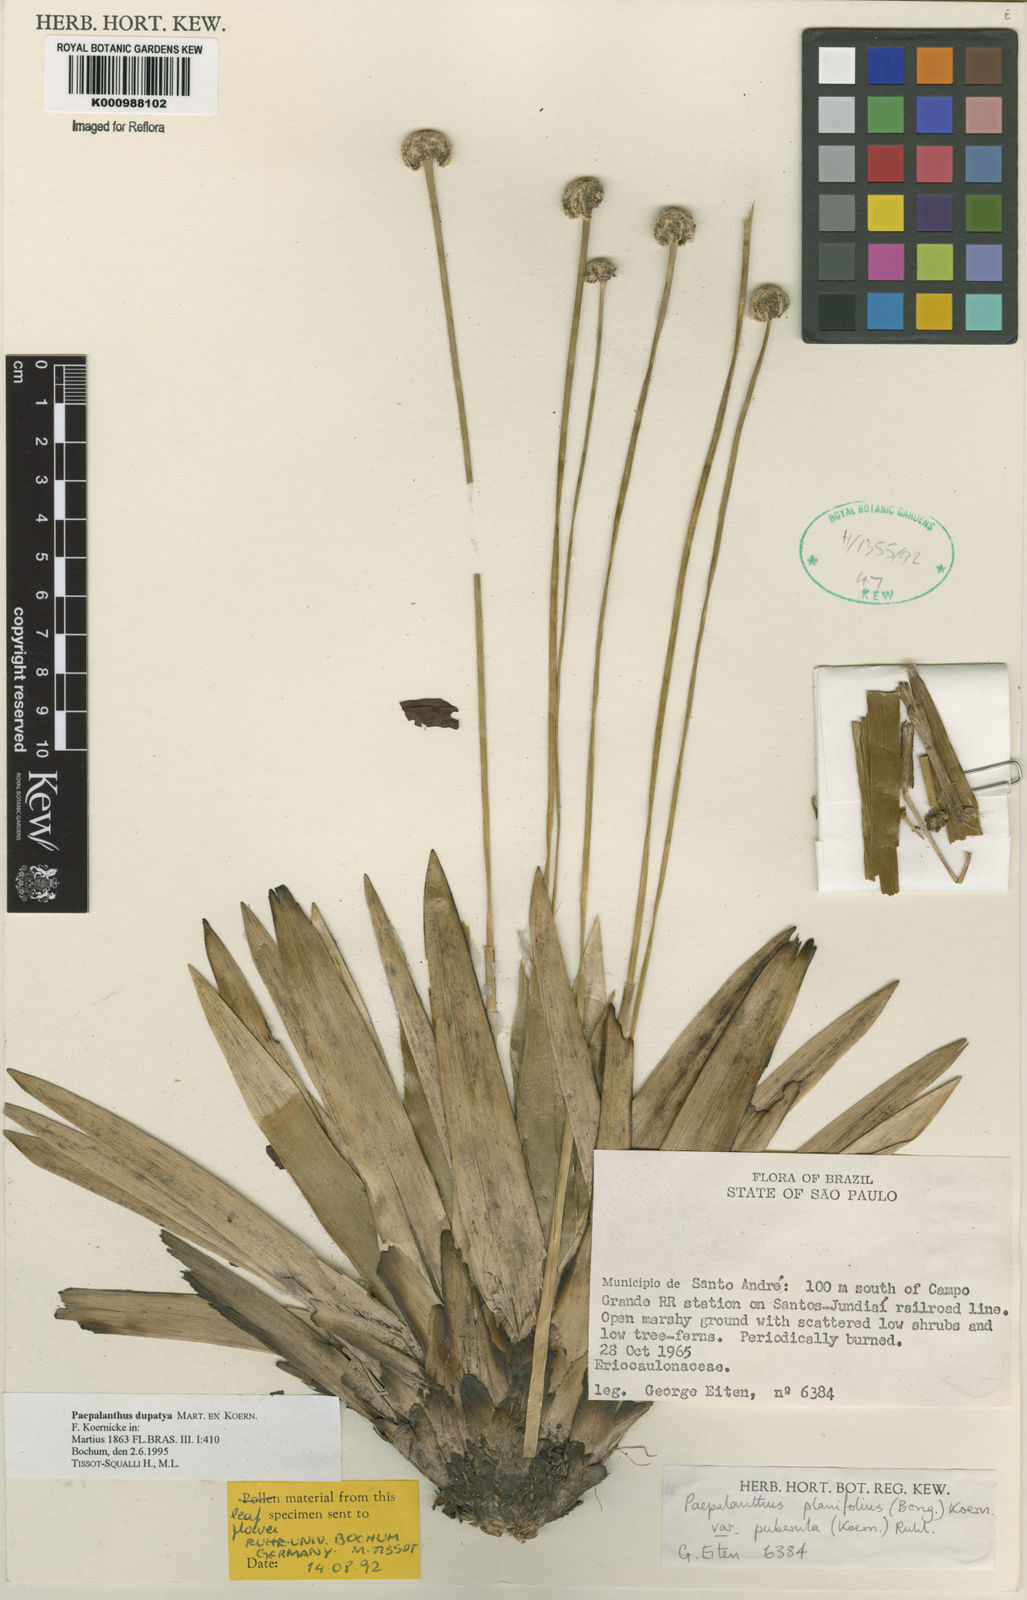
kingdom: Plantae
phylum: Tracheophyta
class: Liliopsida
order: Poales
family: Eriocaulaceae
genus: Paepalanthus
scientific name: Paepalanthus
